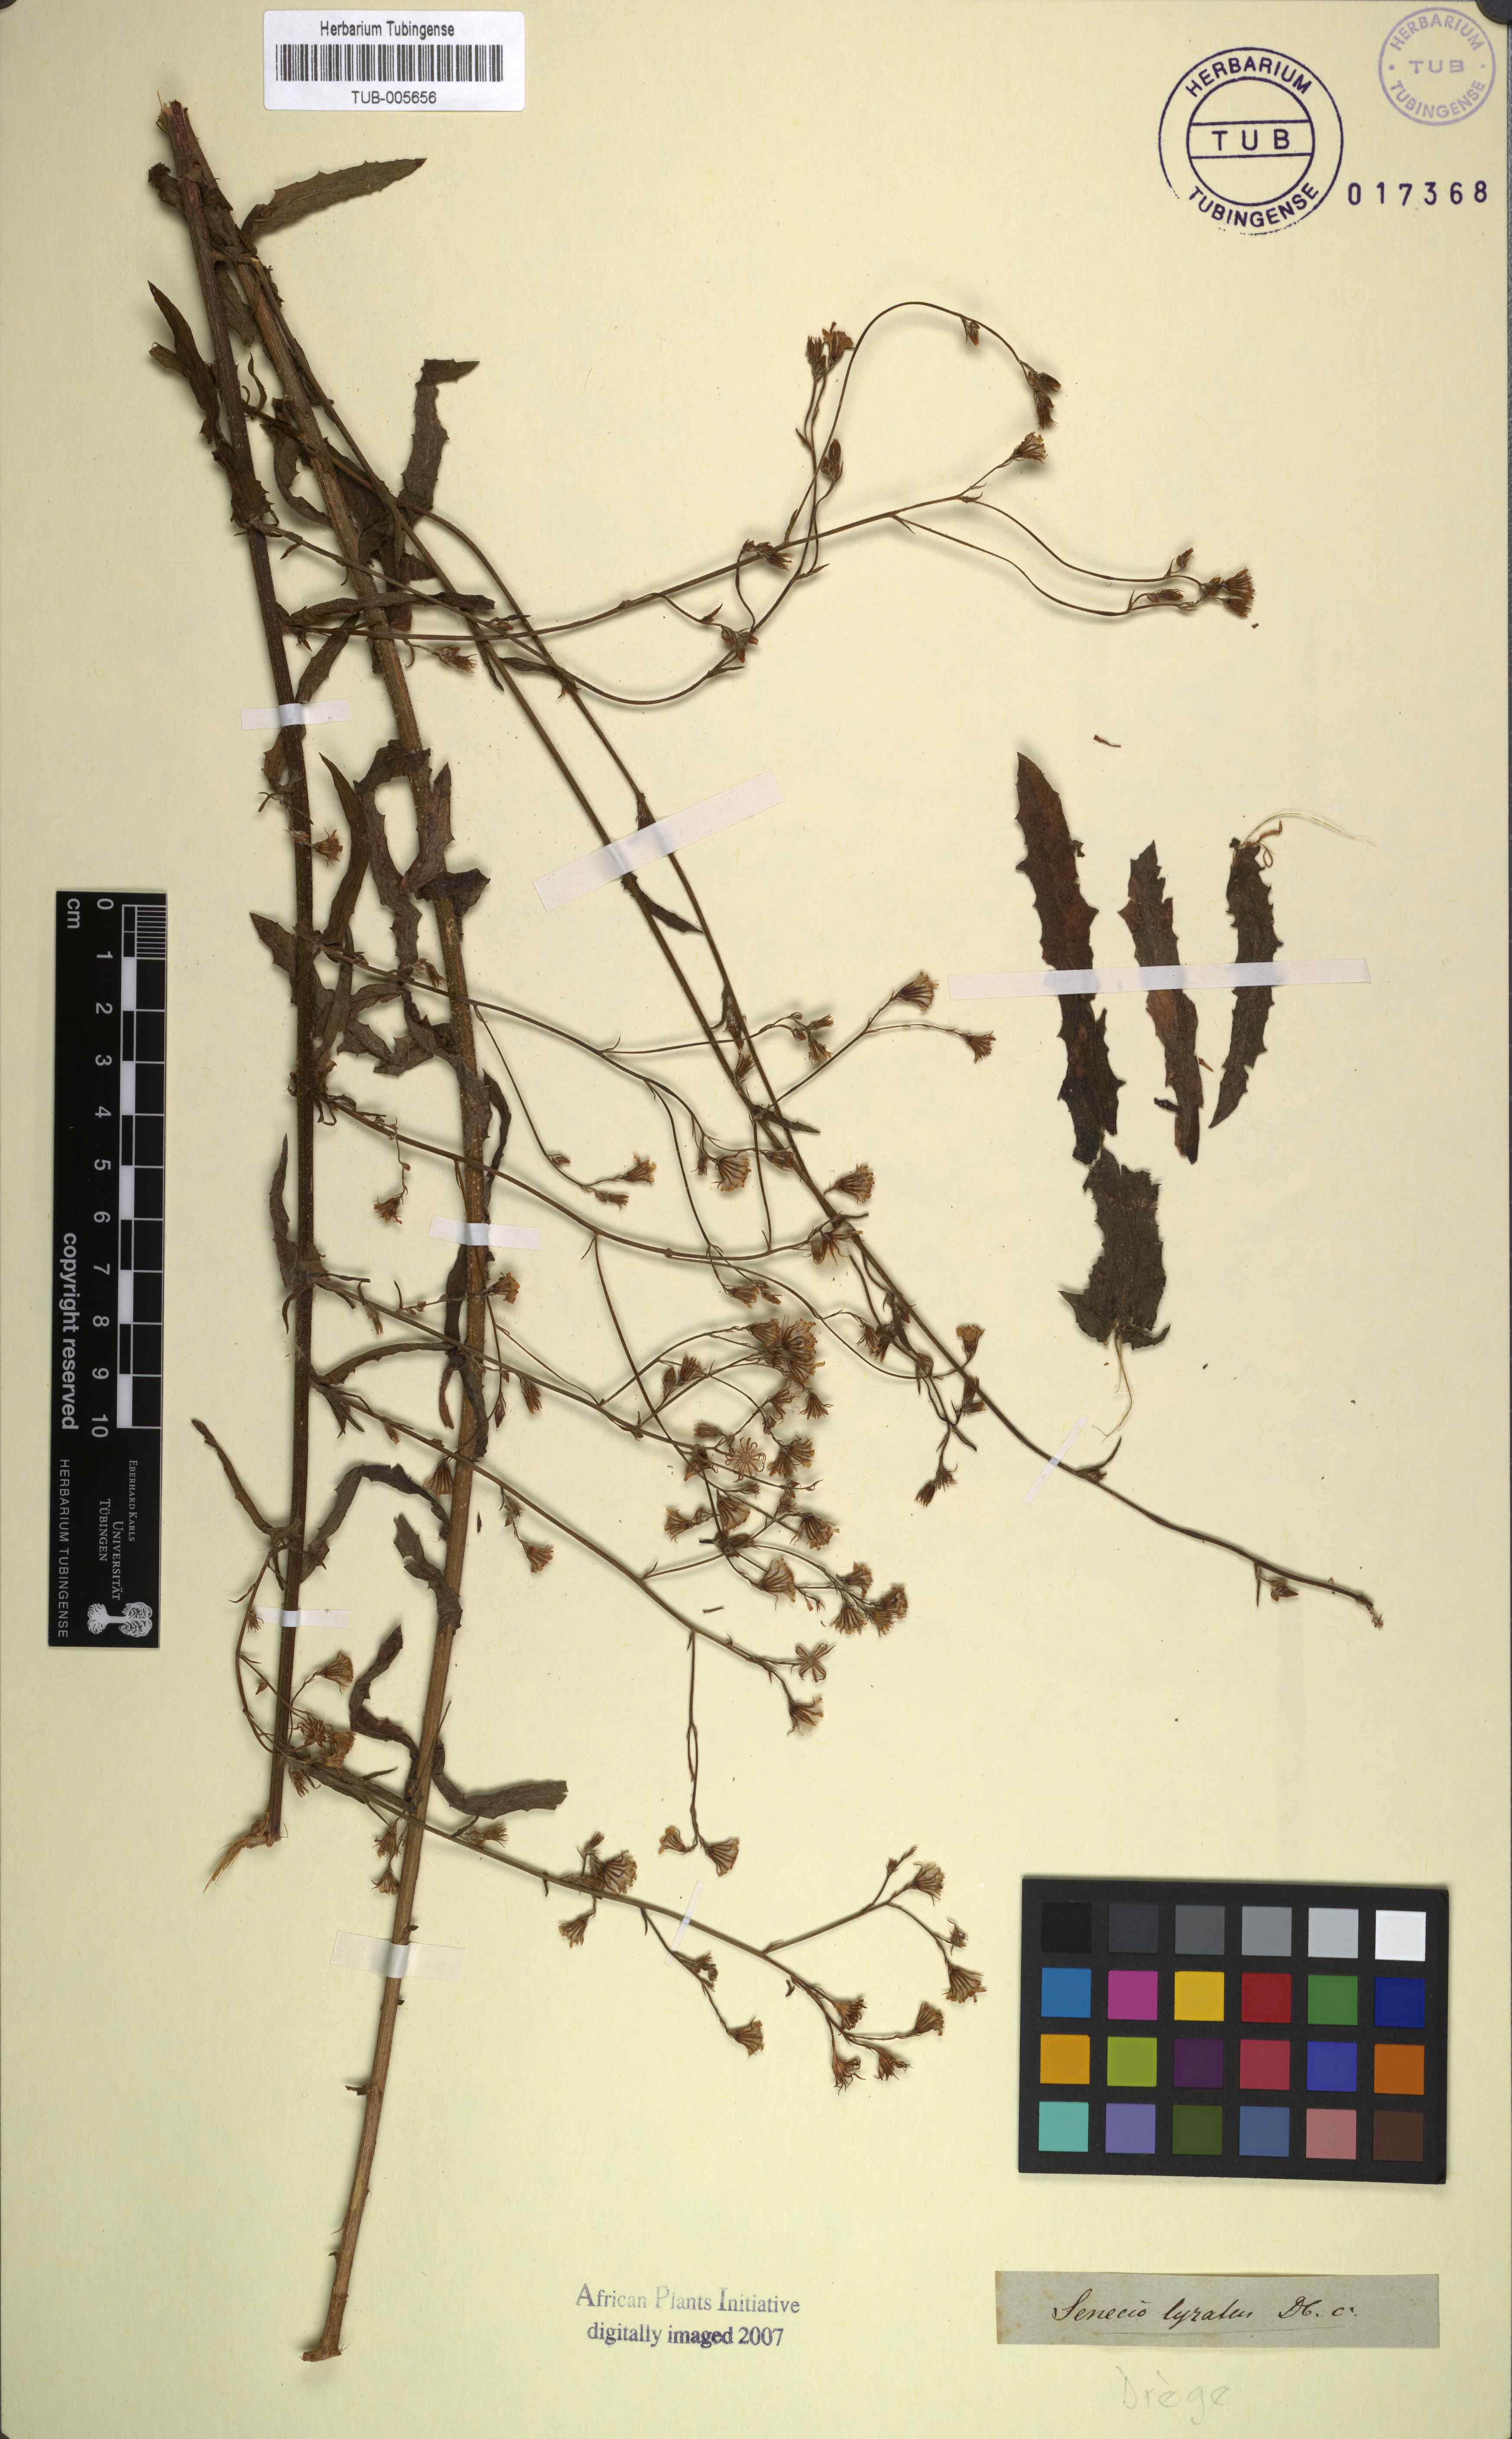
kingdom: Plantae
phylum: Tracheophyta
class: Magnoliopsida
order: Asterales
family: Asteraceae
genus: Senecio
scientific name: Senecio anapetes
